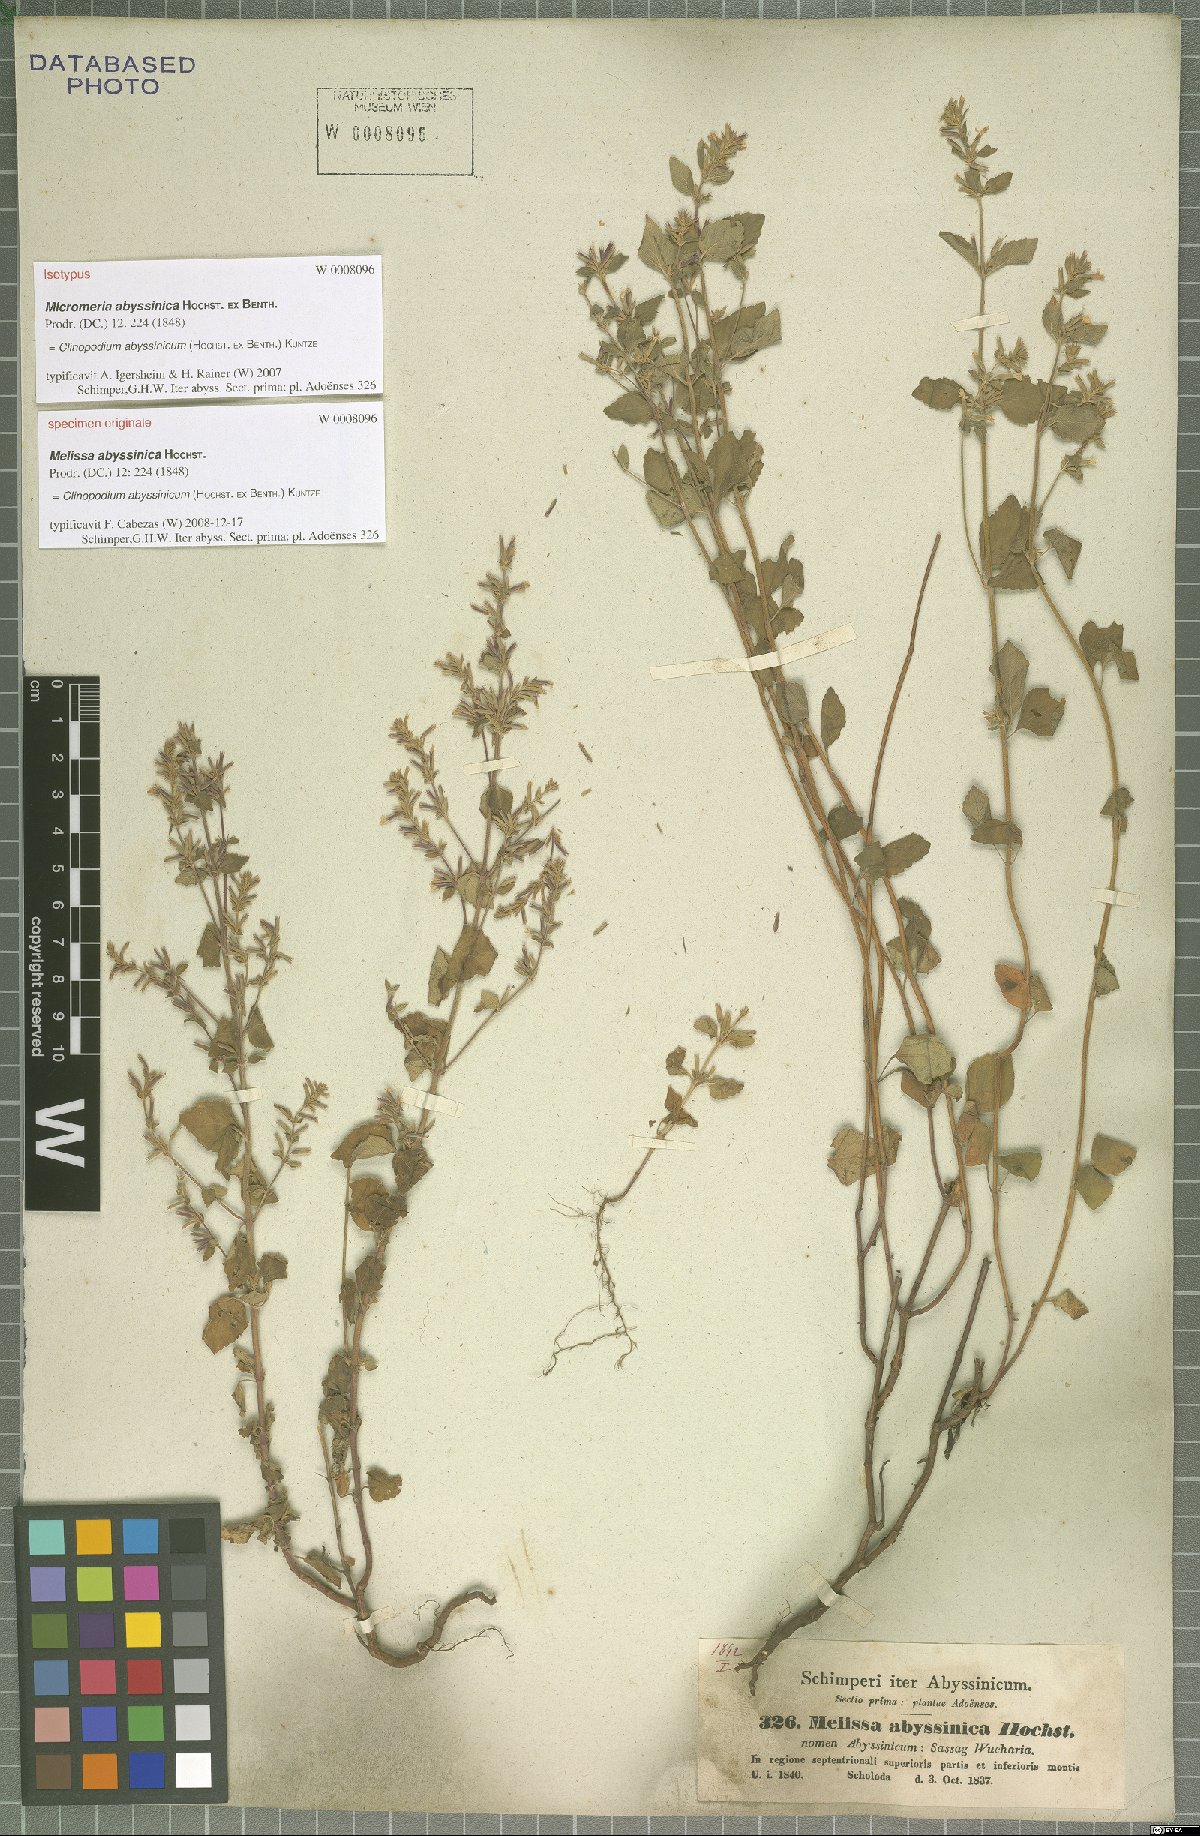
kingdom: Plantae
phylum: Tracheophyta
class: Magnoliopsida
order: Lamiales
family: Lamiaceae
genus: Clinopodium
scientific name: Clinopodium abyssinicum
